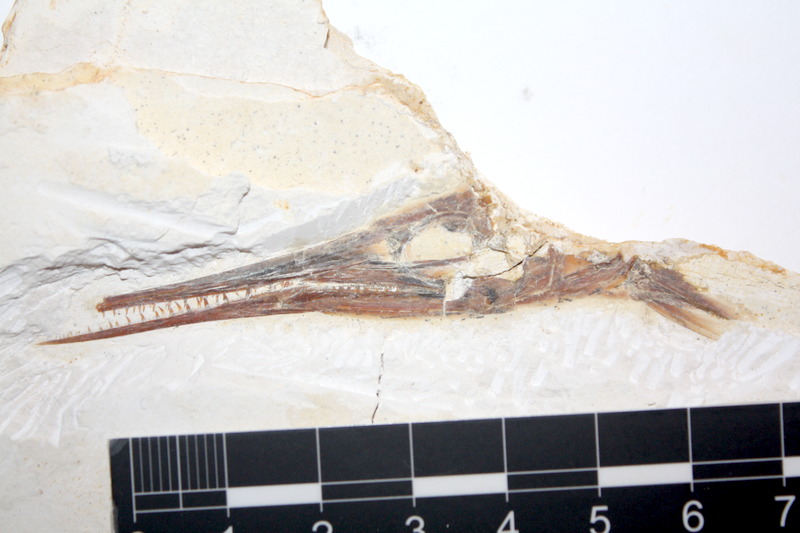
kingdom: Animalia
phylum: Chordata
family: Aspidorhynchidae
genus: Belonostomus
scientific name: Belonostomus kochii
